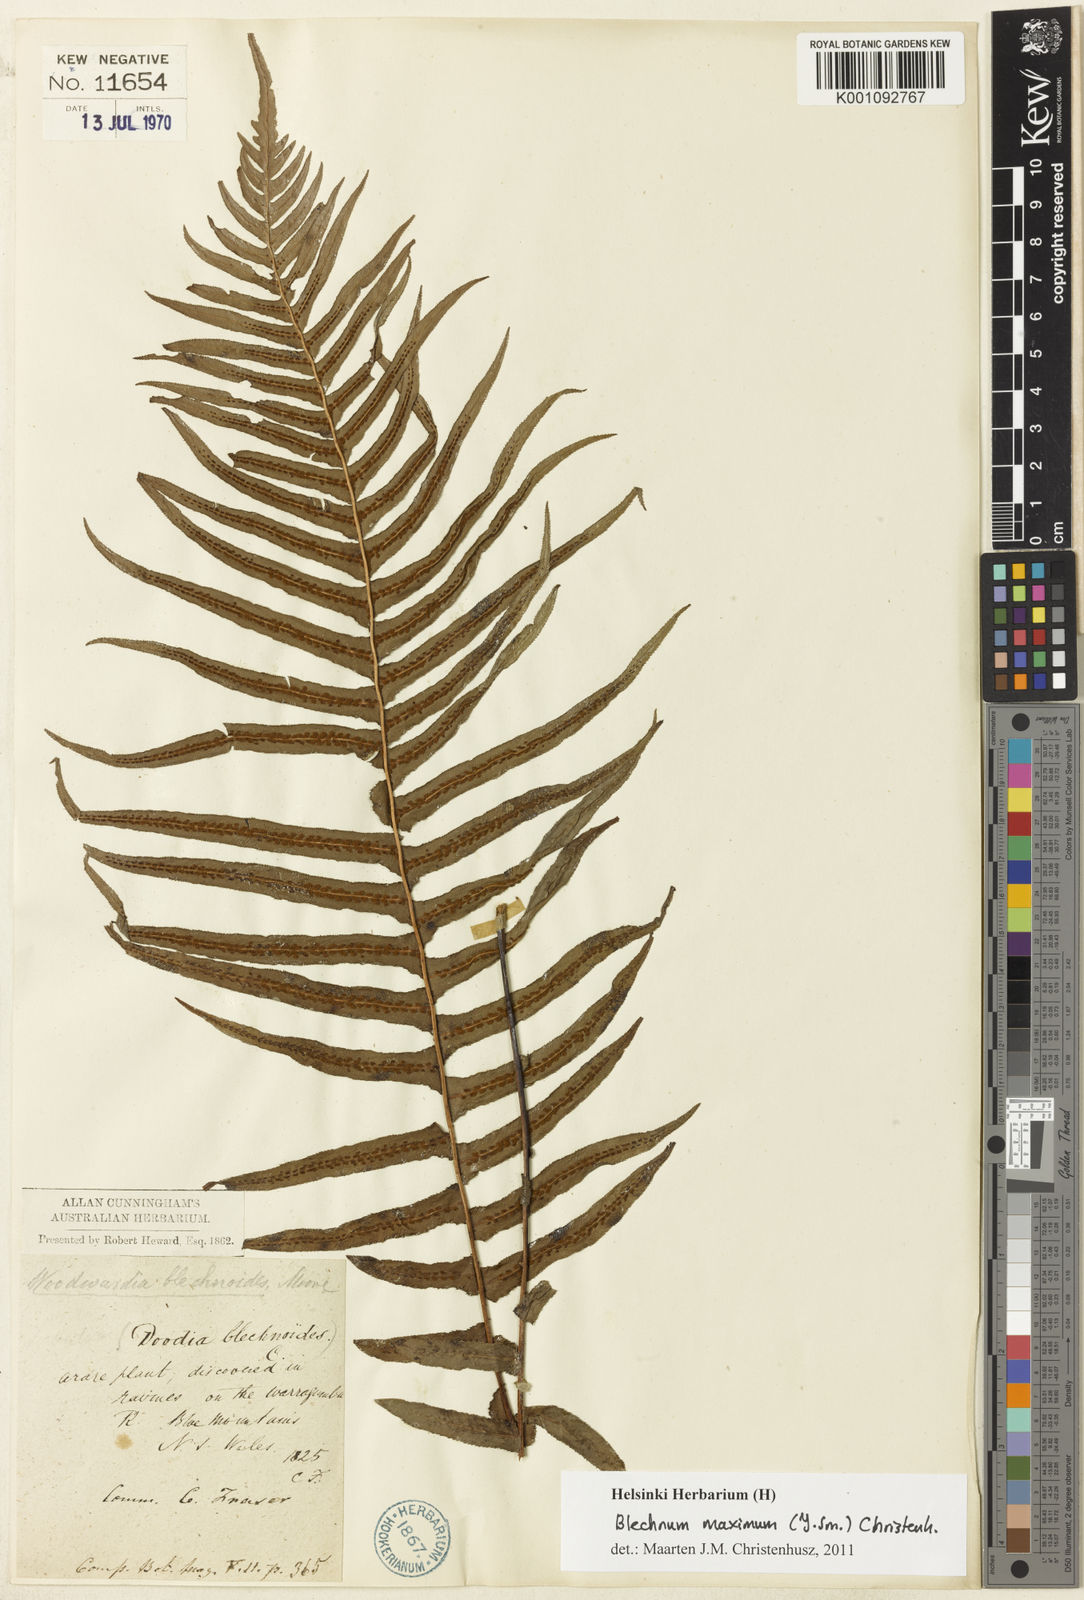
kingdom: Plantae
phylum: Tracheophyta
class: Polypodiopsida
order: Polypodiales
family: Blechnaceae
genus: Doodia
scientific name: Doodia
